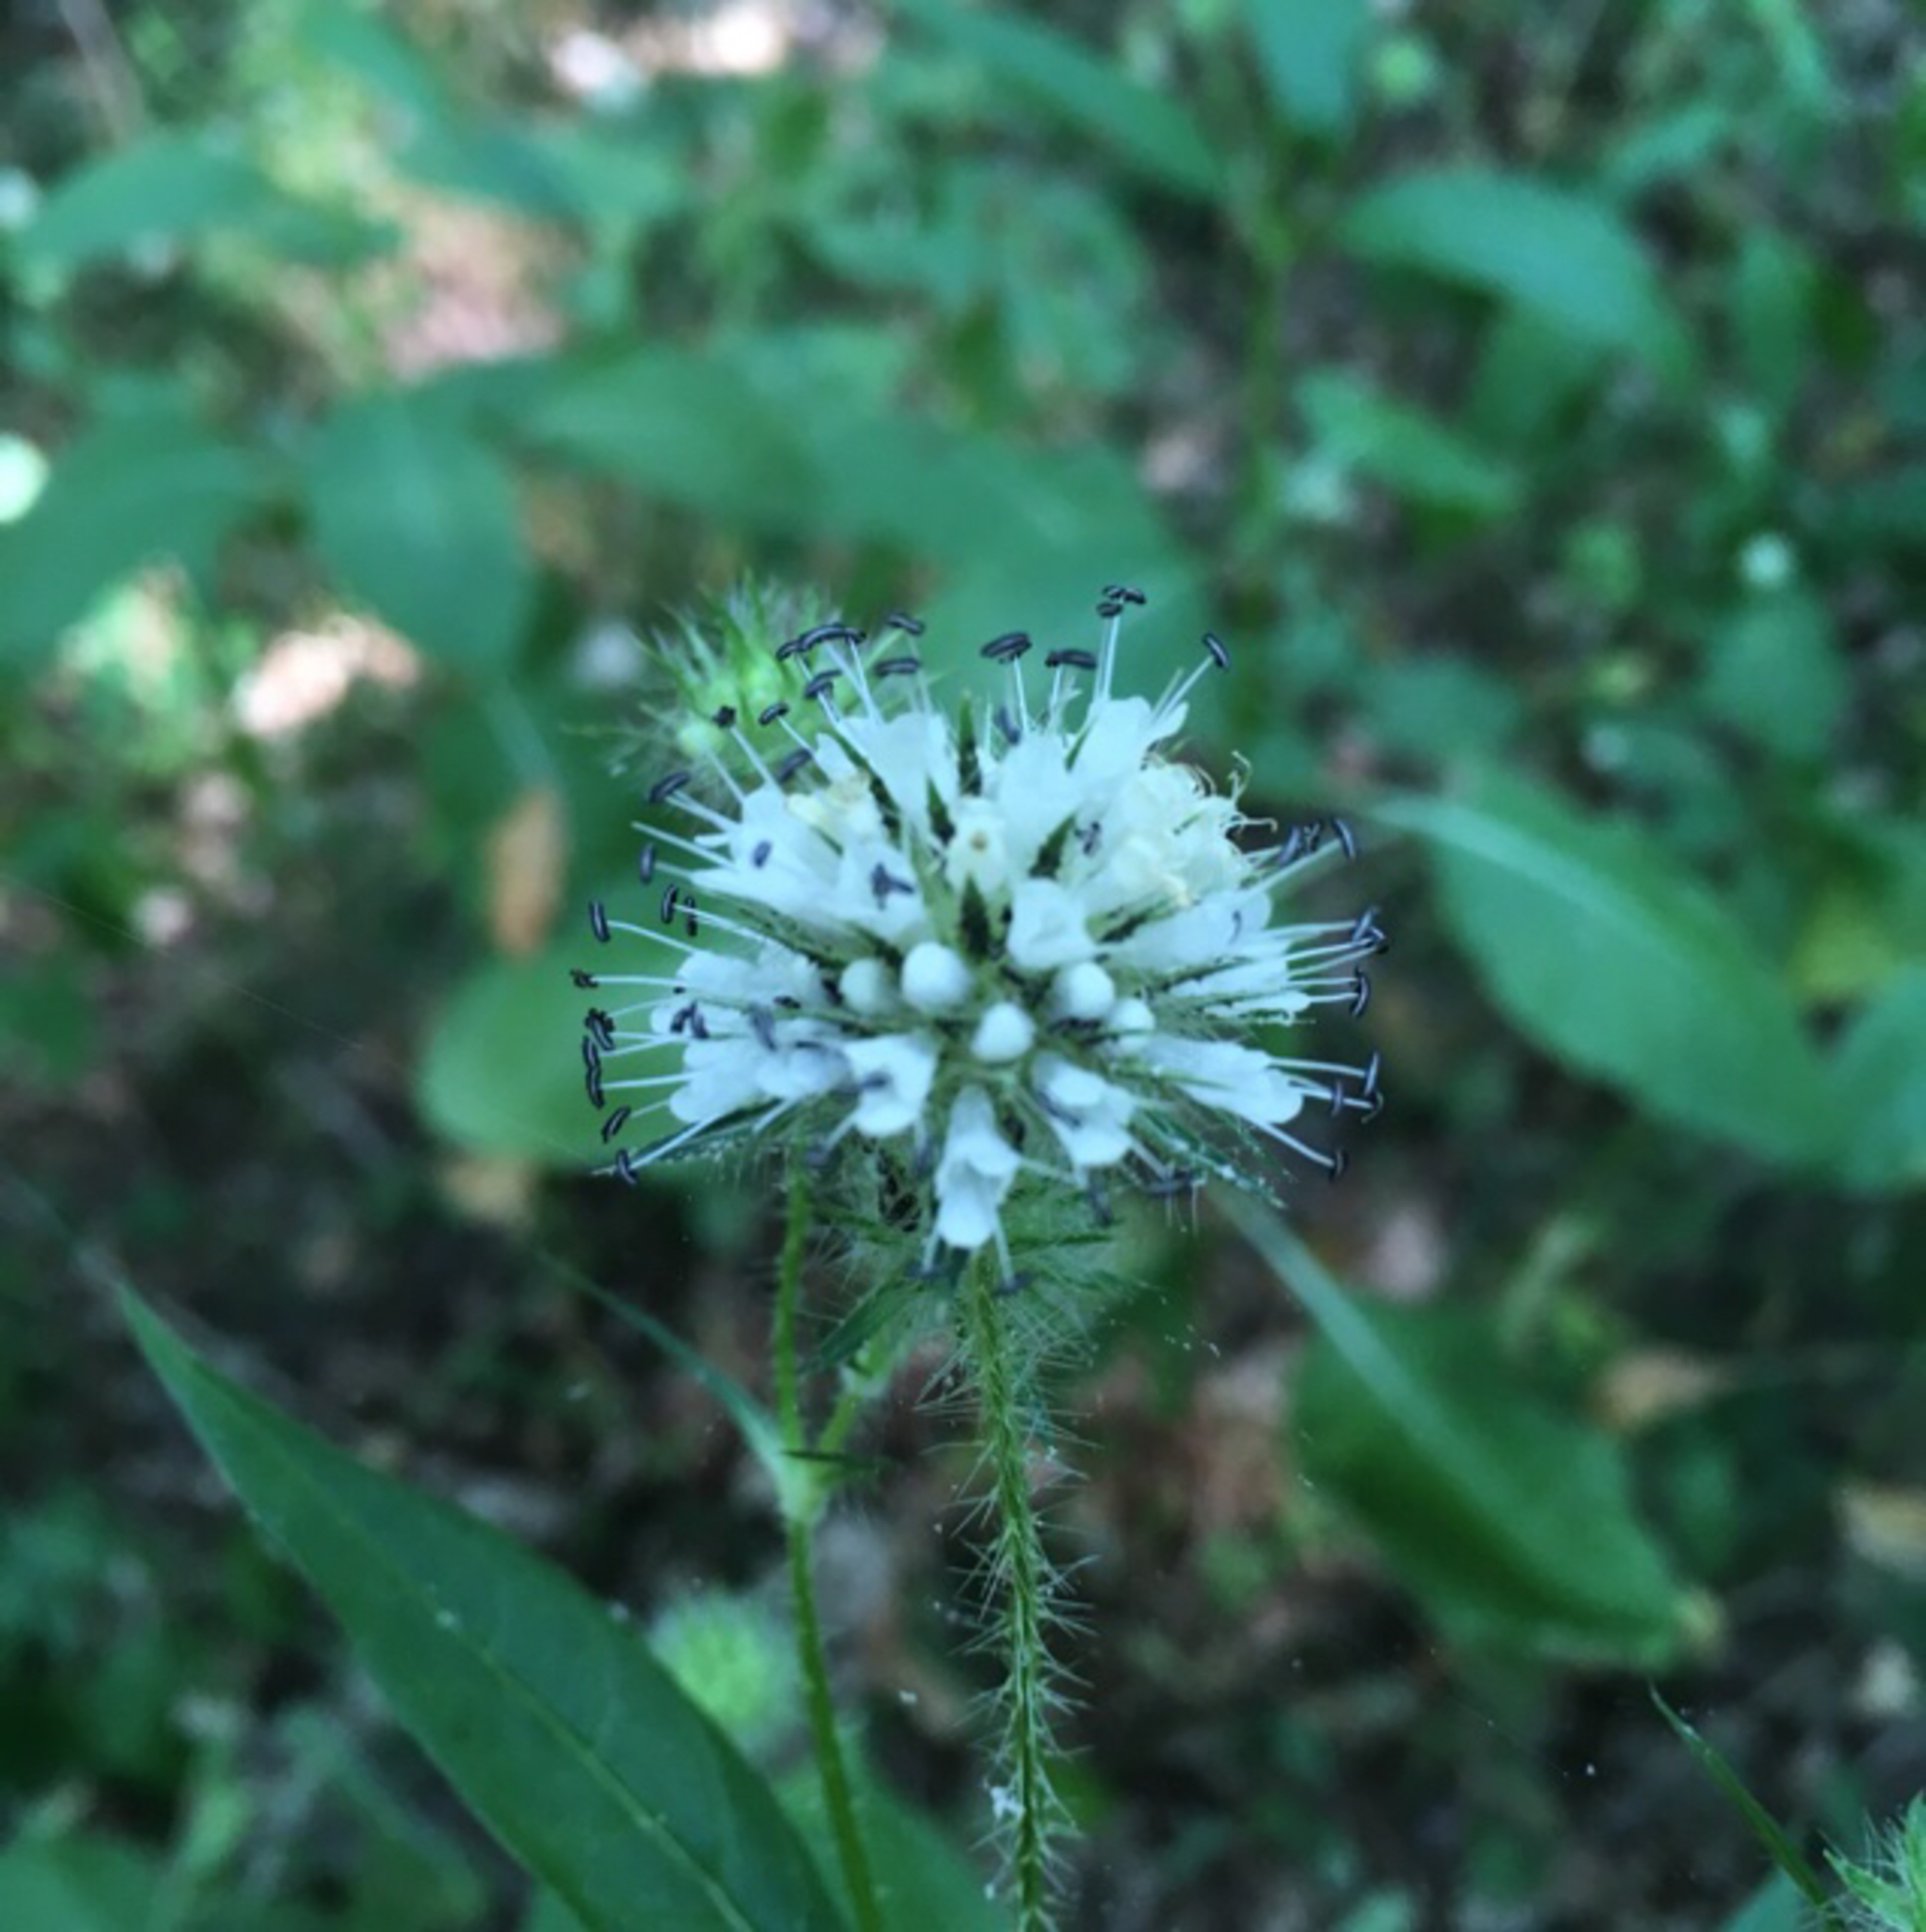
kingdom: Plantae
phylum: Tracheophyta
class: Magnoliopsida
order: Dipsacales
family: Caprifoliaceae
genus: Dipsacus
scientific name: Dipsacus pilosus
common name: Håret kartebolle
